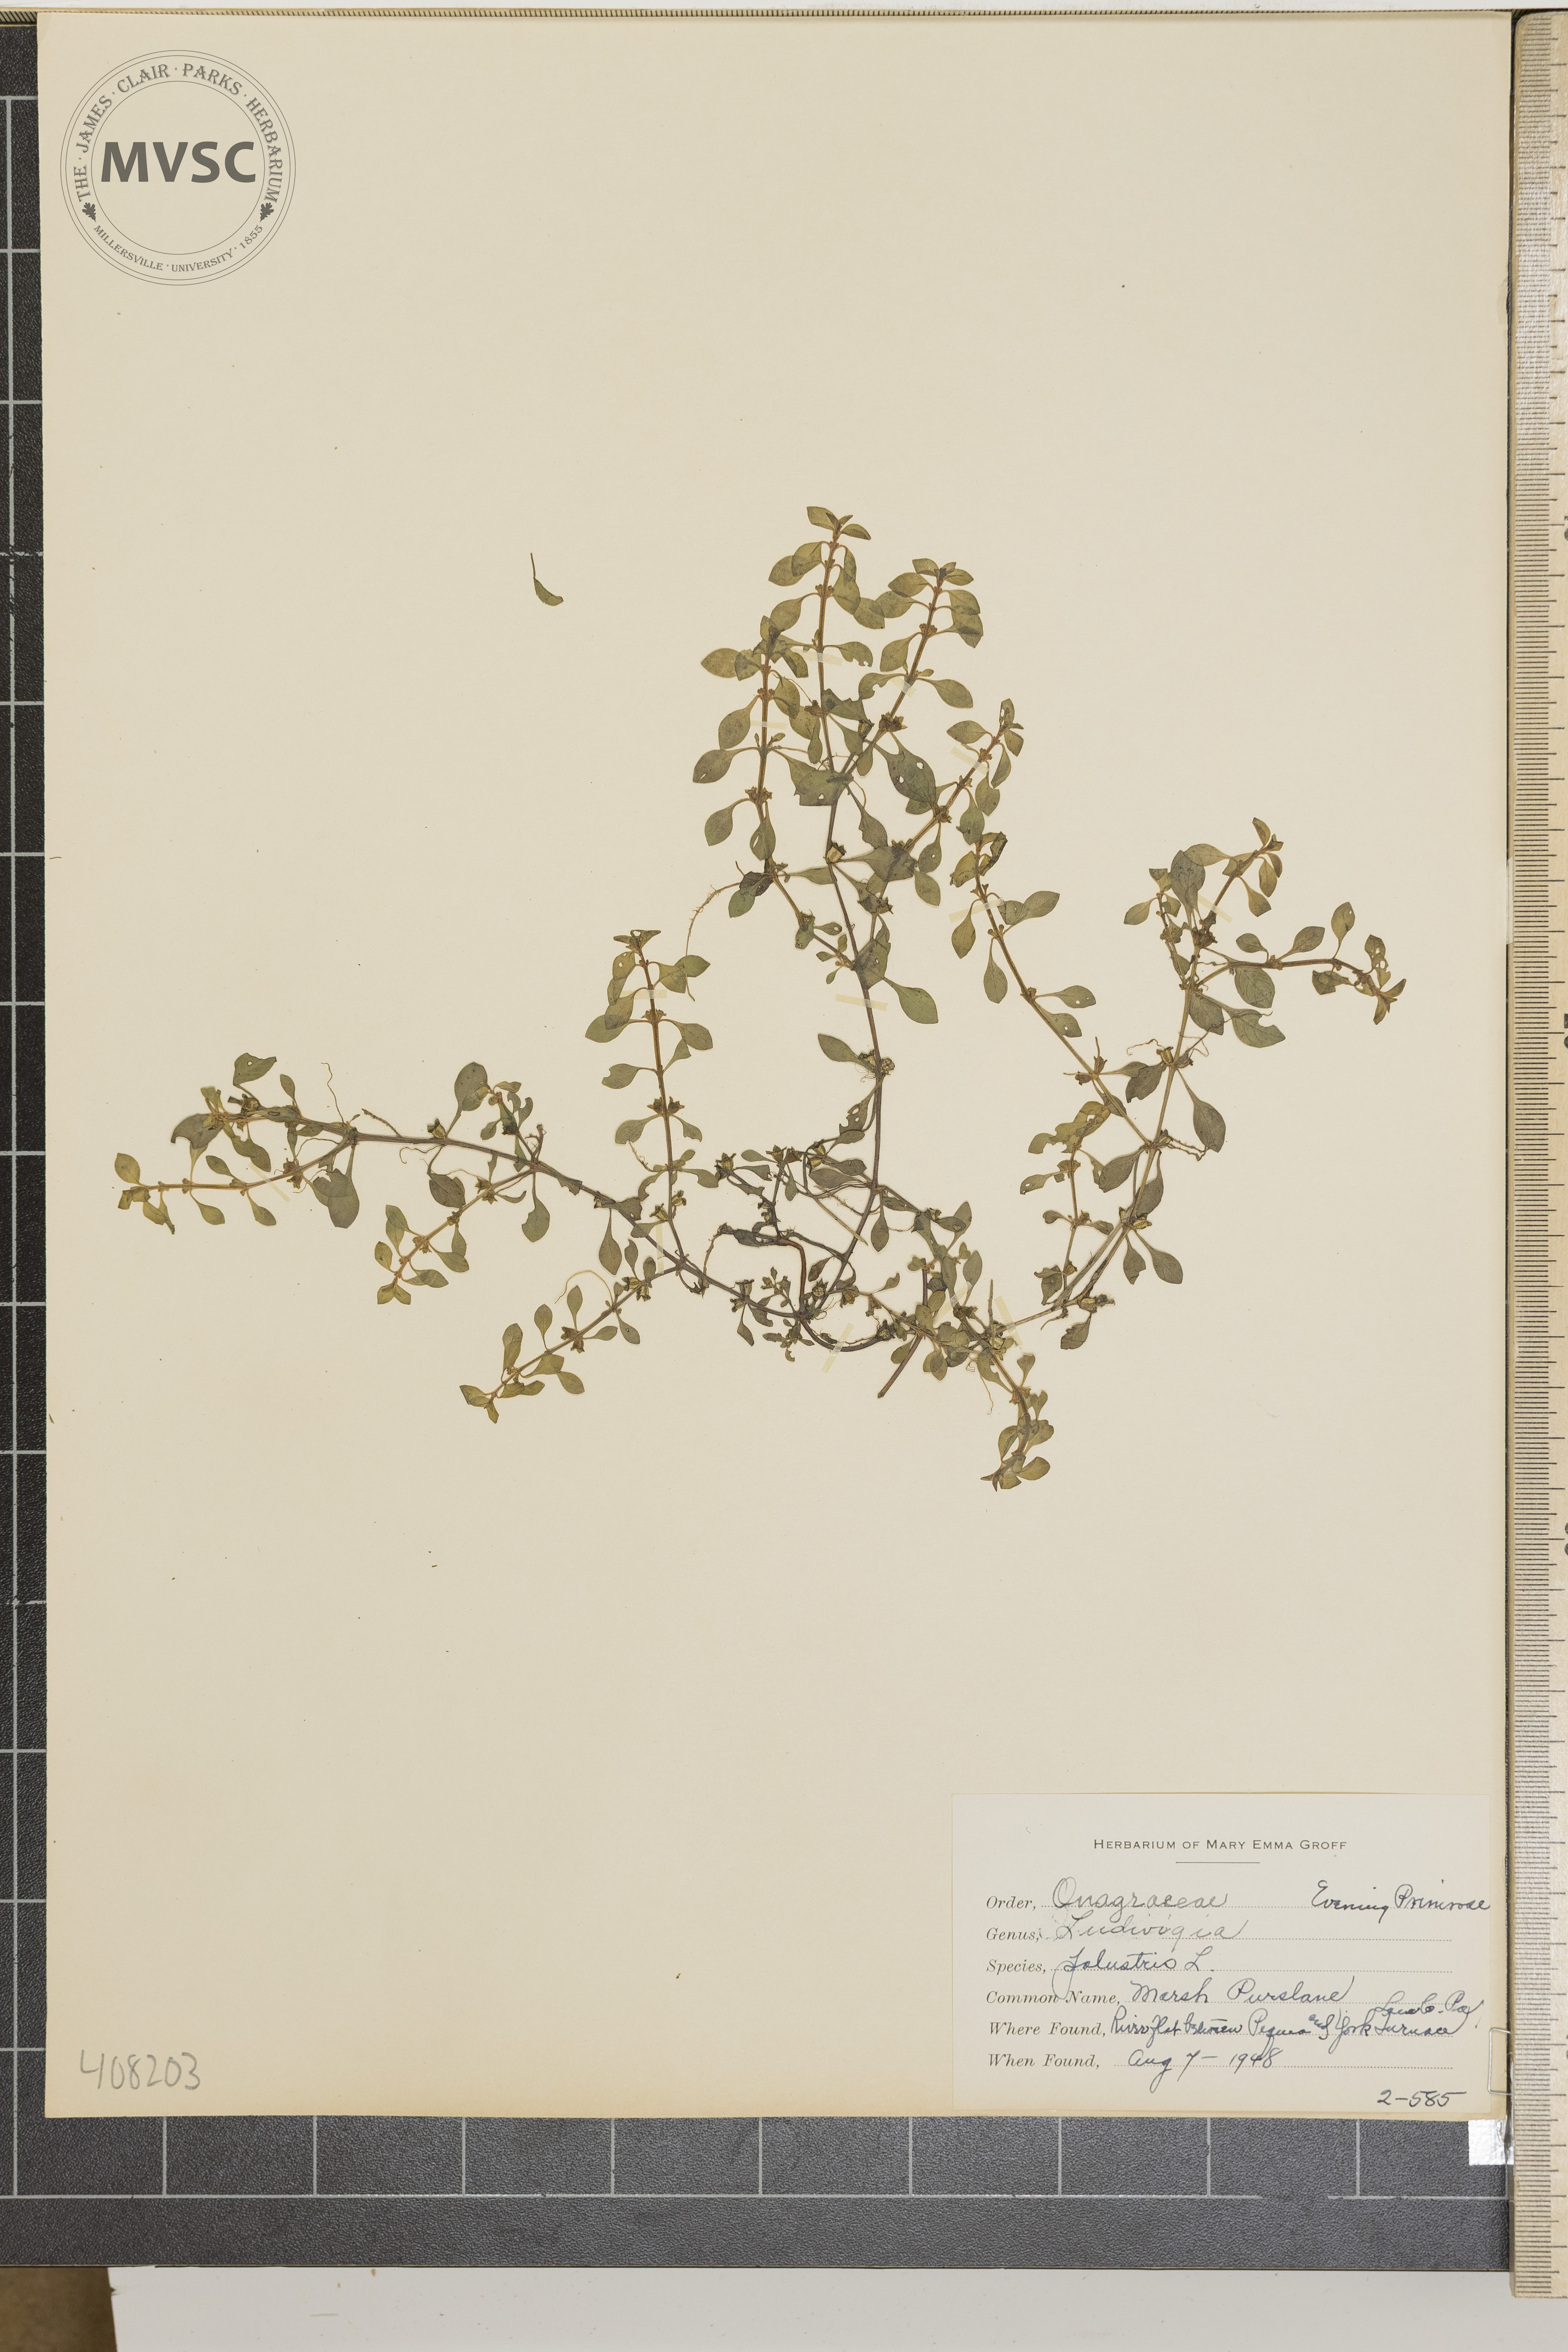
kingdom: Plantae
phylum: Tracheophyta
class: Magnoliopsida
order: Myrtales
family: Onagraceae
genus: Ludwigia
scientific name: Ludwigia palustris
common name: marsh purslane
